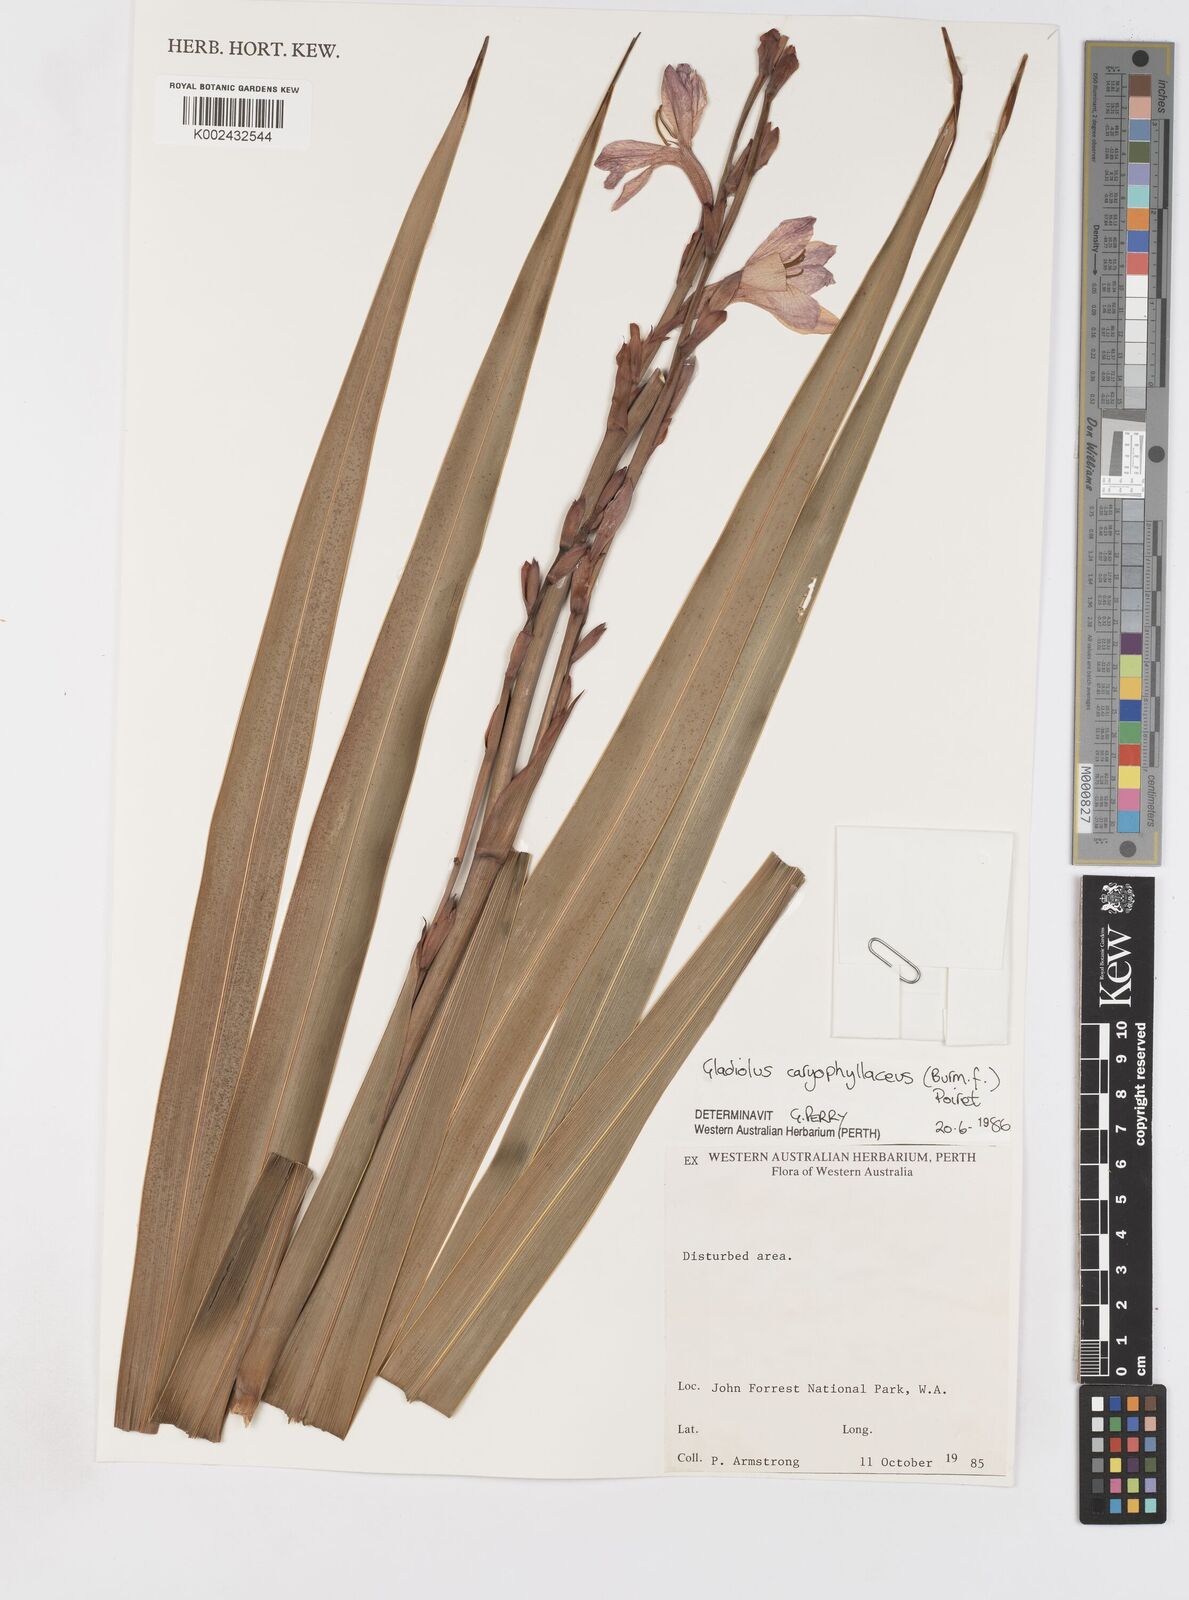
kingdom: Plantae
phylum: Tracheophyta
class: Liliopsida
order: Asparagales
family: Iridaceae
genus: Gladiolus
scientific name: Gladiolus caryophyllaceus
